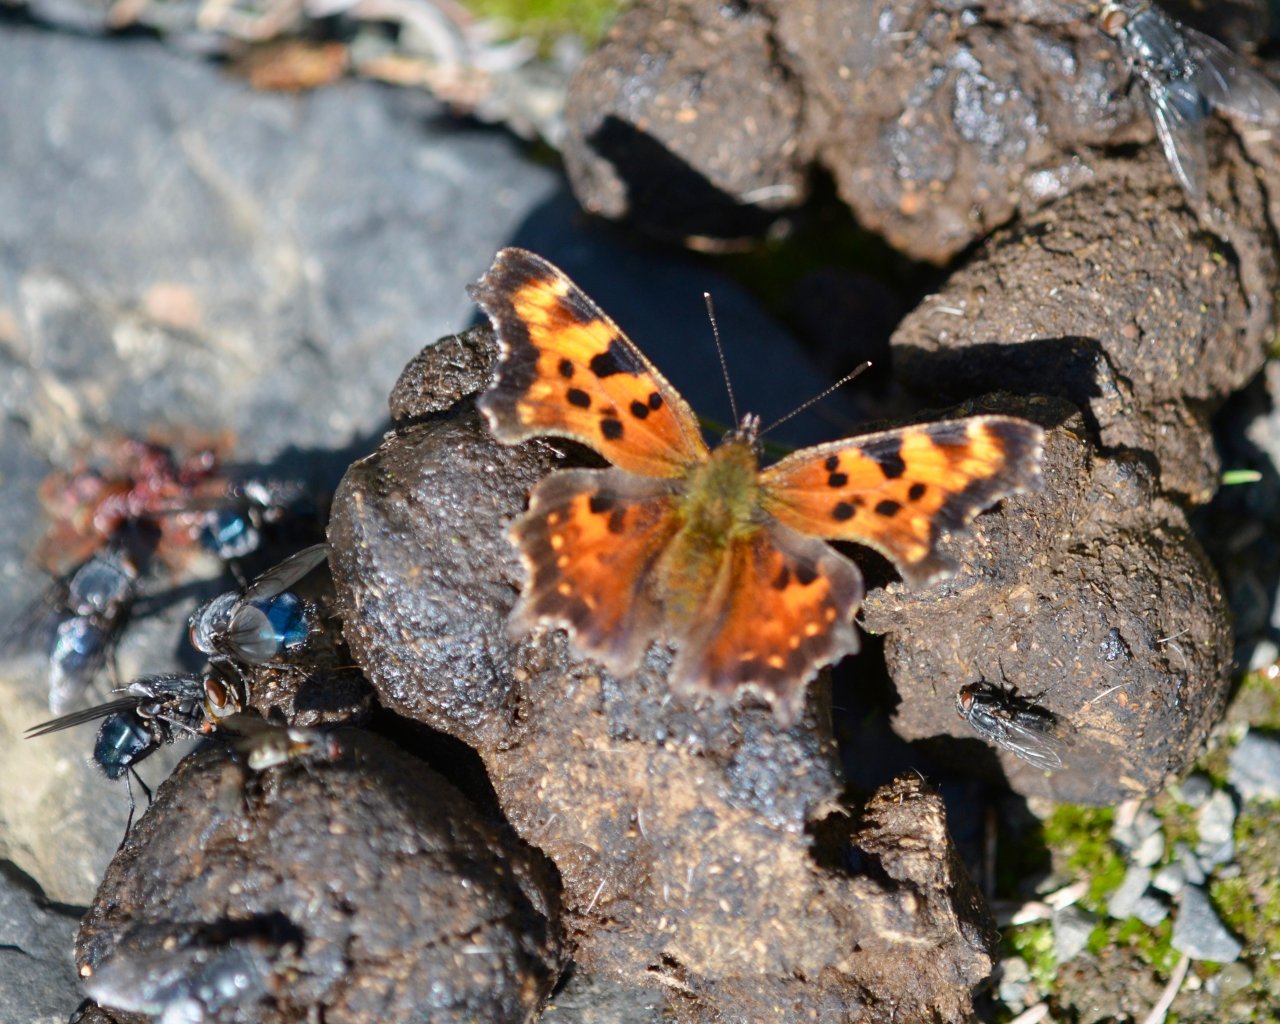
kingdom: Animalia
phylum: Arthropoda
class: Insecta
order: Lepidoptera
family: Nymphalidae
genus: Polygonia
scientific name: Polygonia faunus
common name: Green Comma
